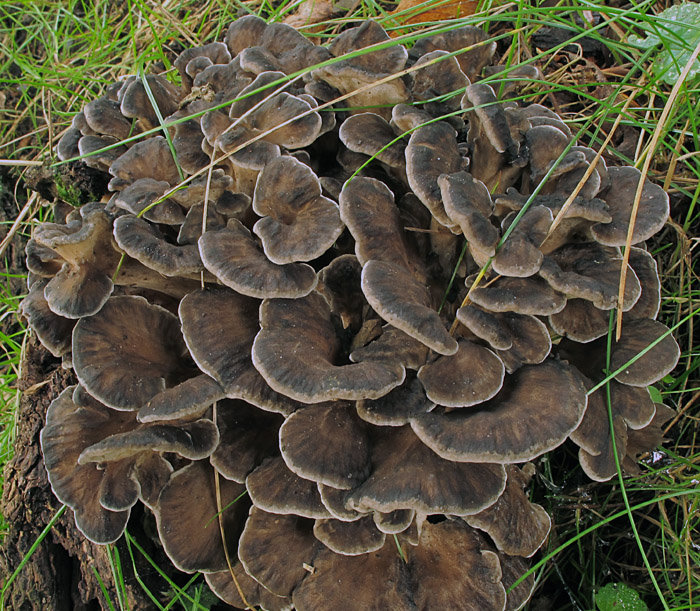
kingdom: Fungi
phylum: Basidiomycota
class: Agaricomycetes
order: Polyporales
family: Grifolaceae
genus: Grifola
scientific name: Grifola frondosa
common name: tueporesvamp
